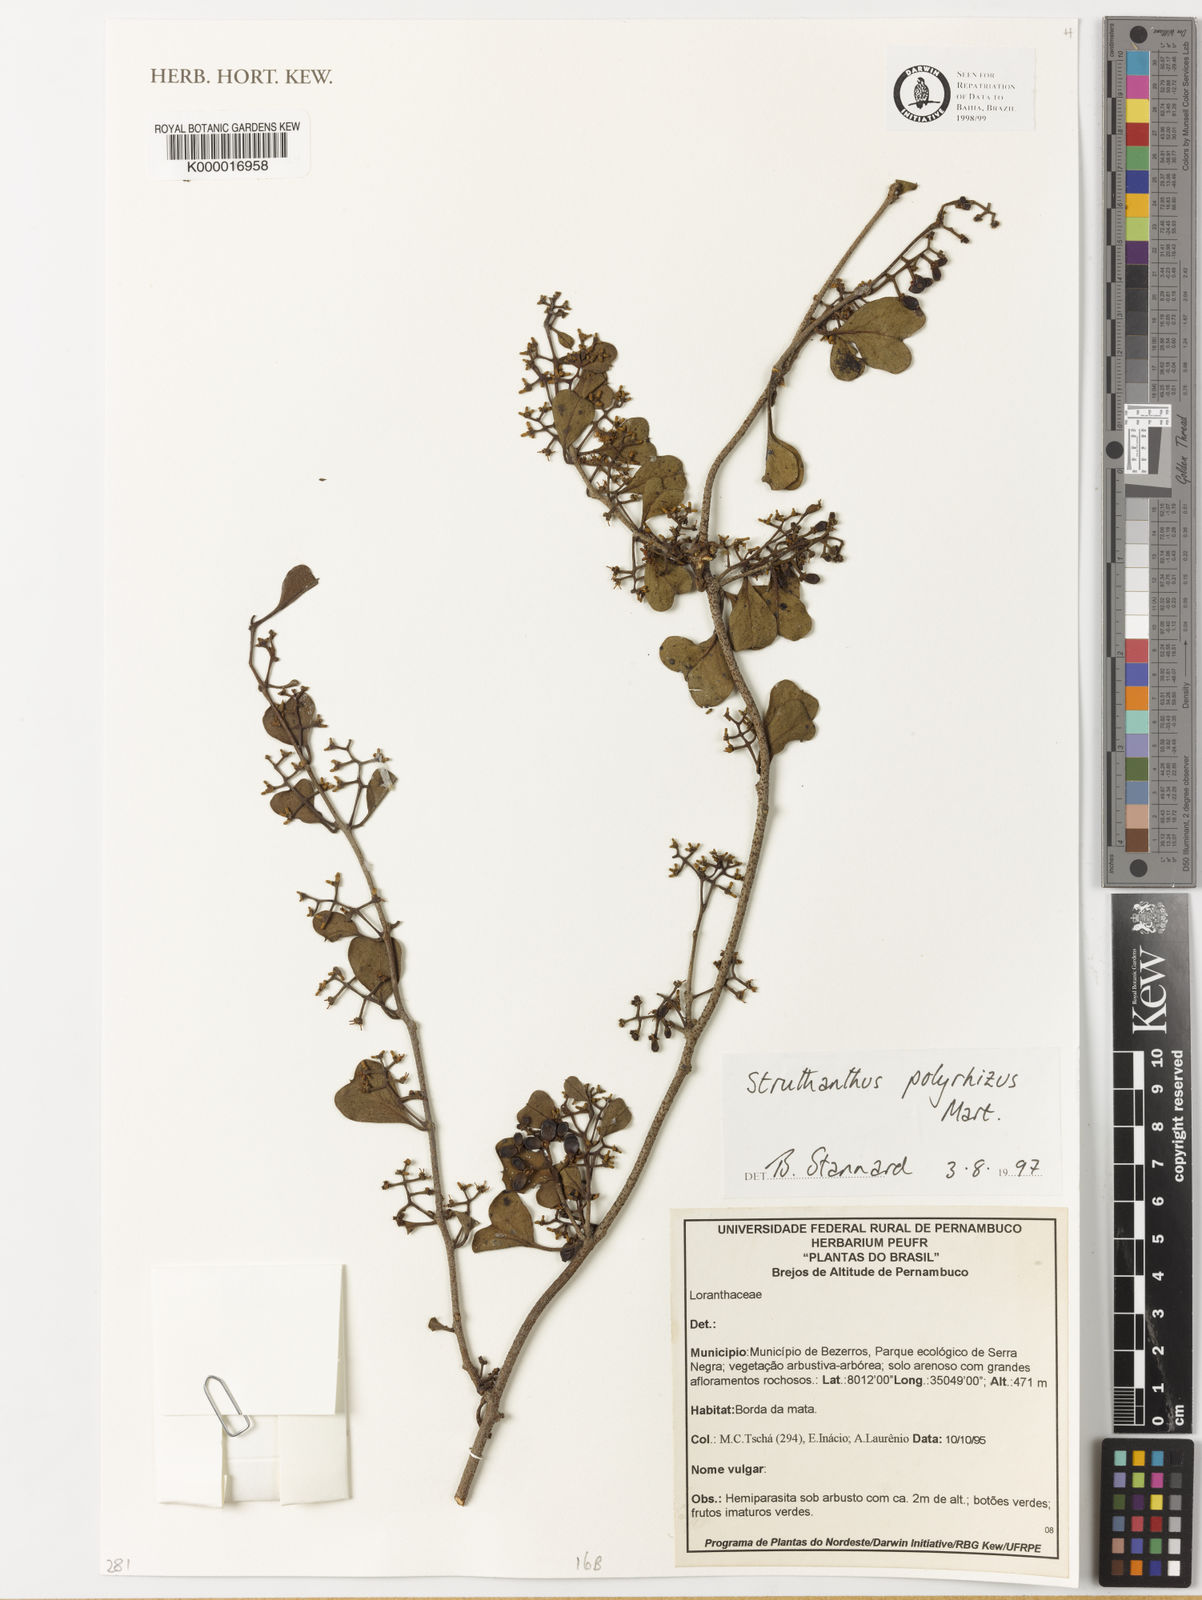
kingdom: Plantae
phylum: Tracheophyta
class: Magnoliopsida
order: Santalales
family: Loranthaceae
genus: Struthanthus
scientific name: Struthanthus retusus
